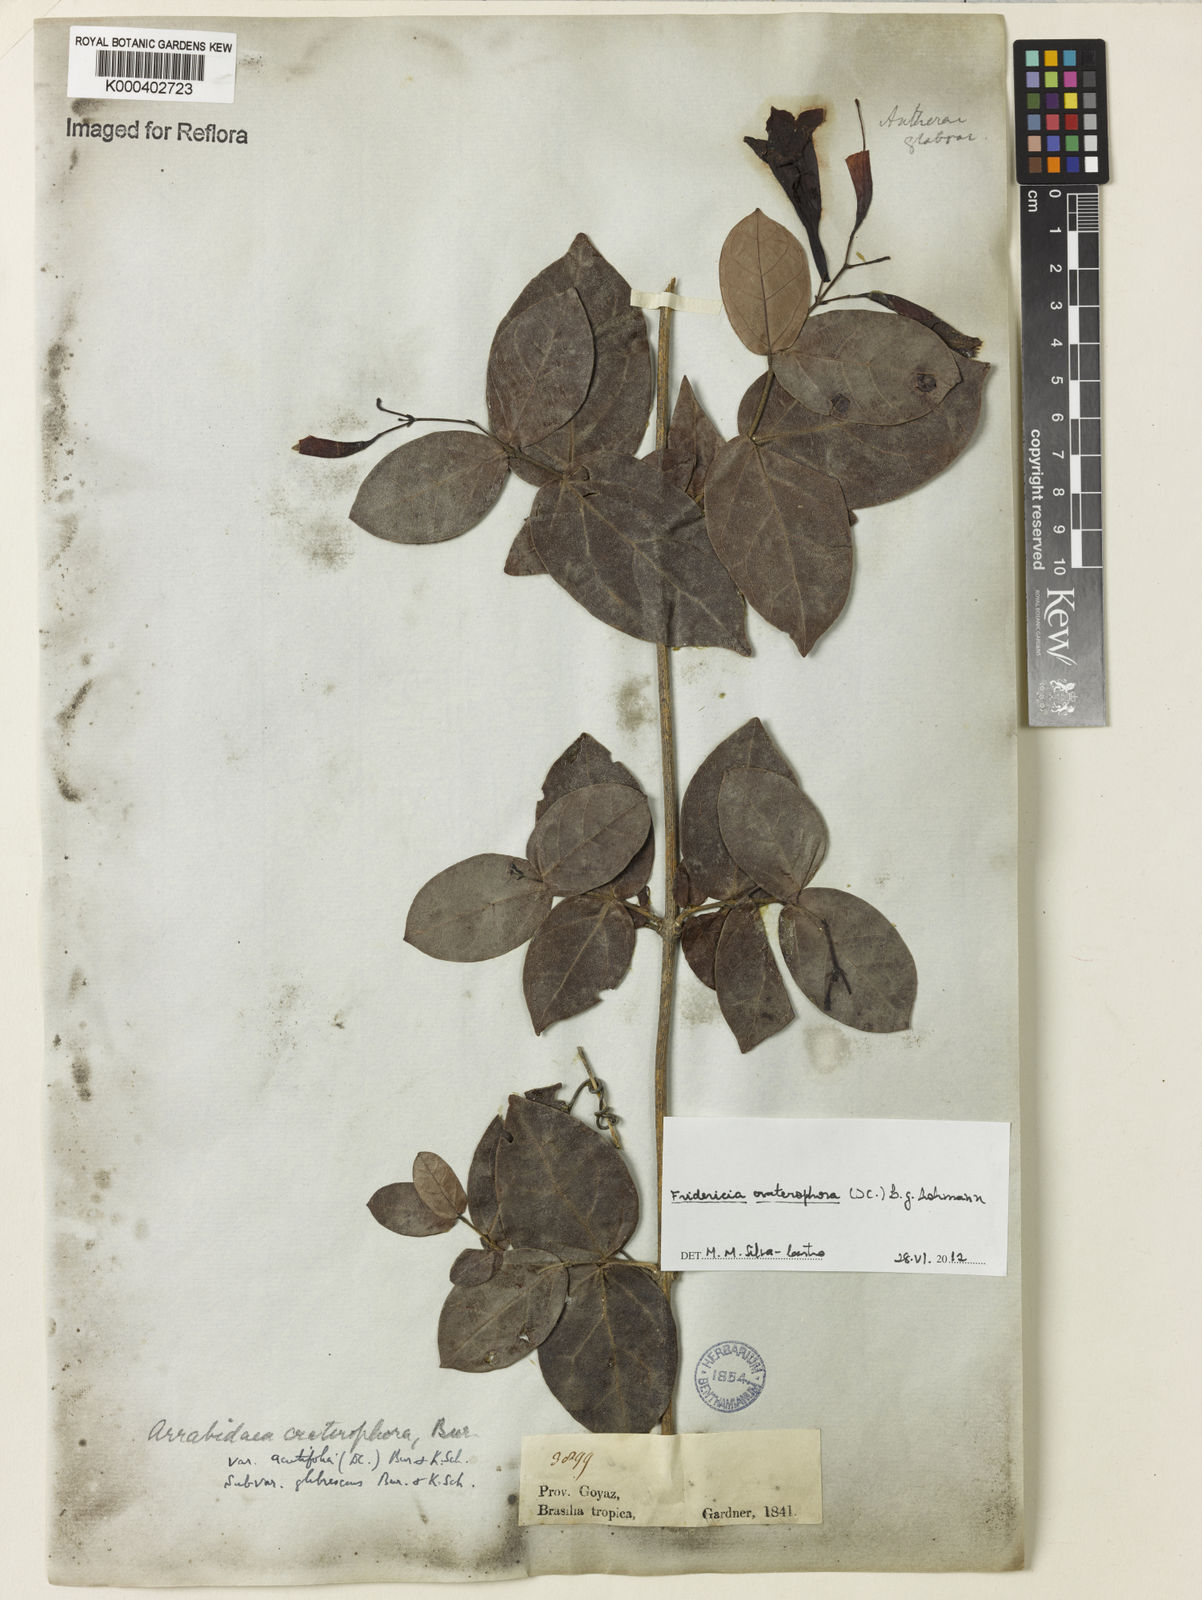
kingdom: Plantae
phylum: Tracheophyta
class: Magnoliopsida
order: Lamiales
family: Bignoniaceae
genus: Fridericia
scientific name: Fridericia craterophora
